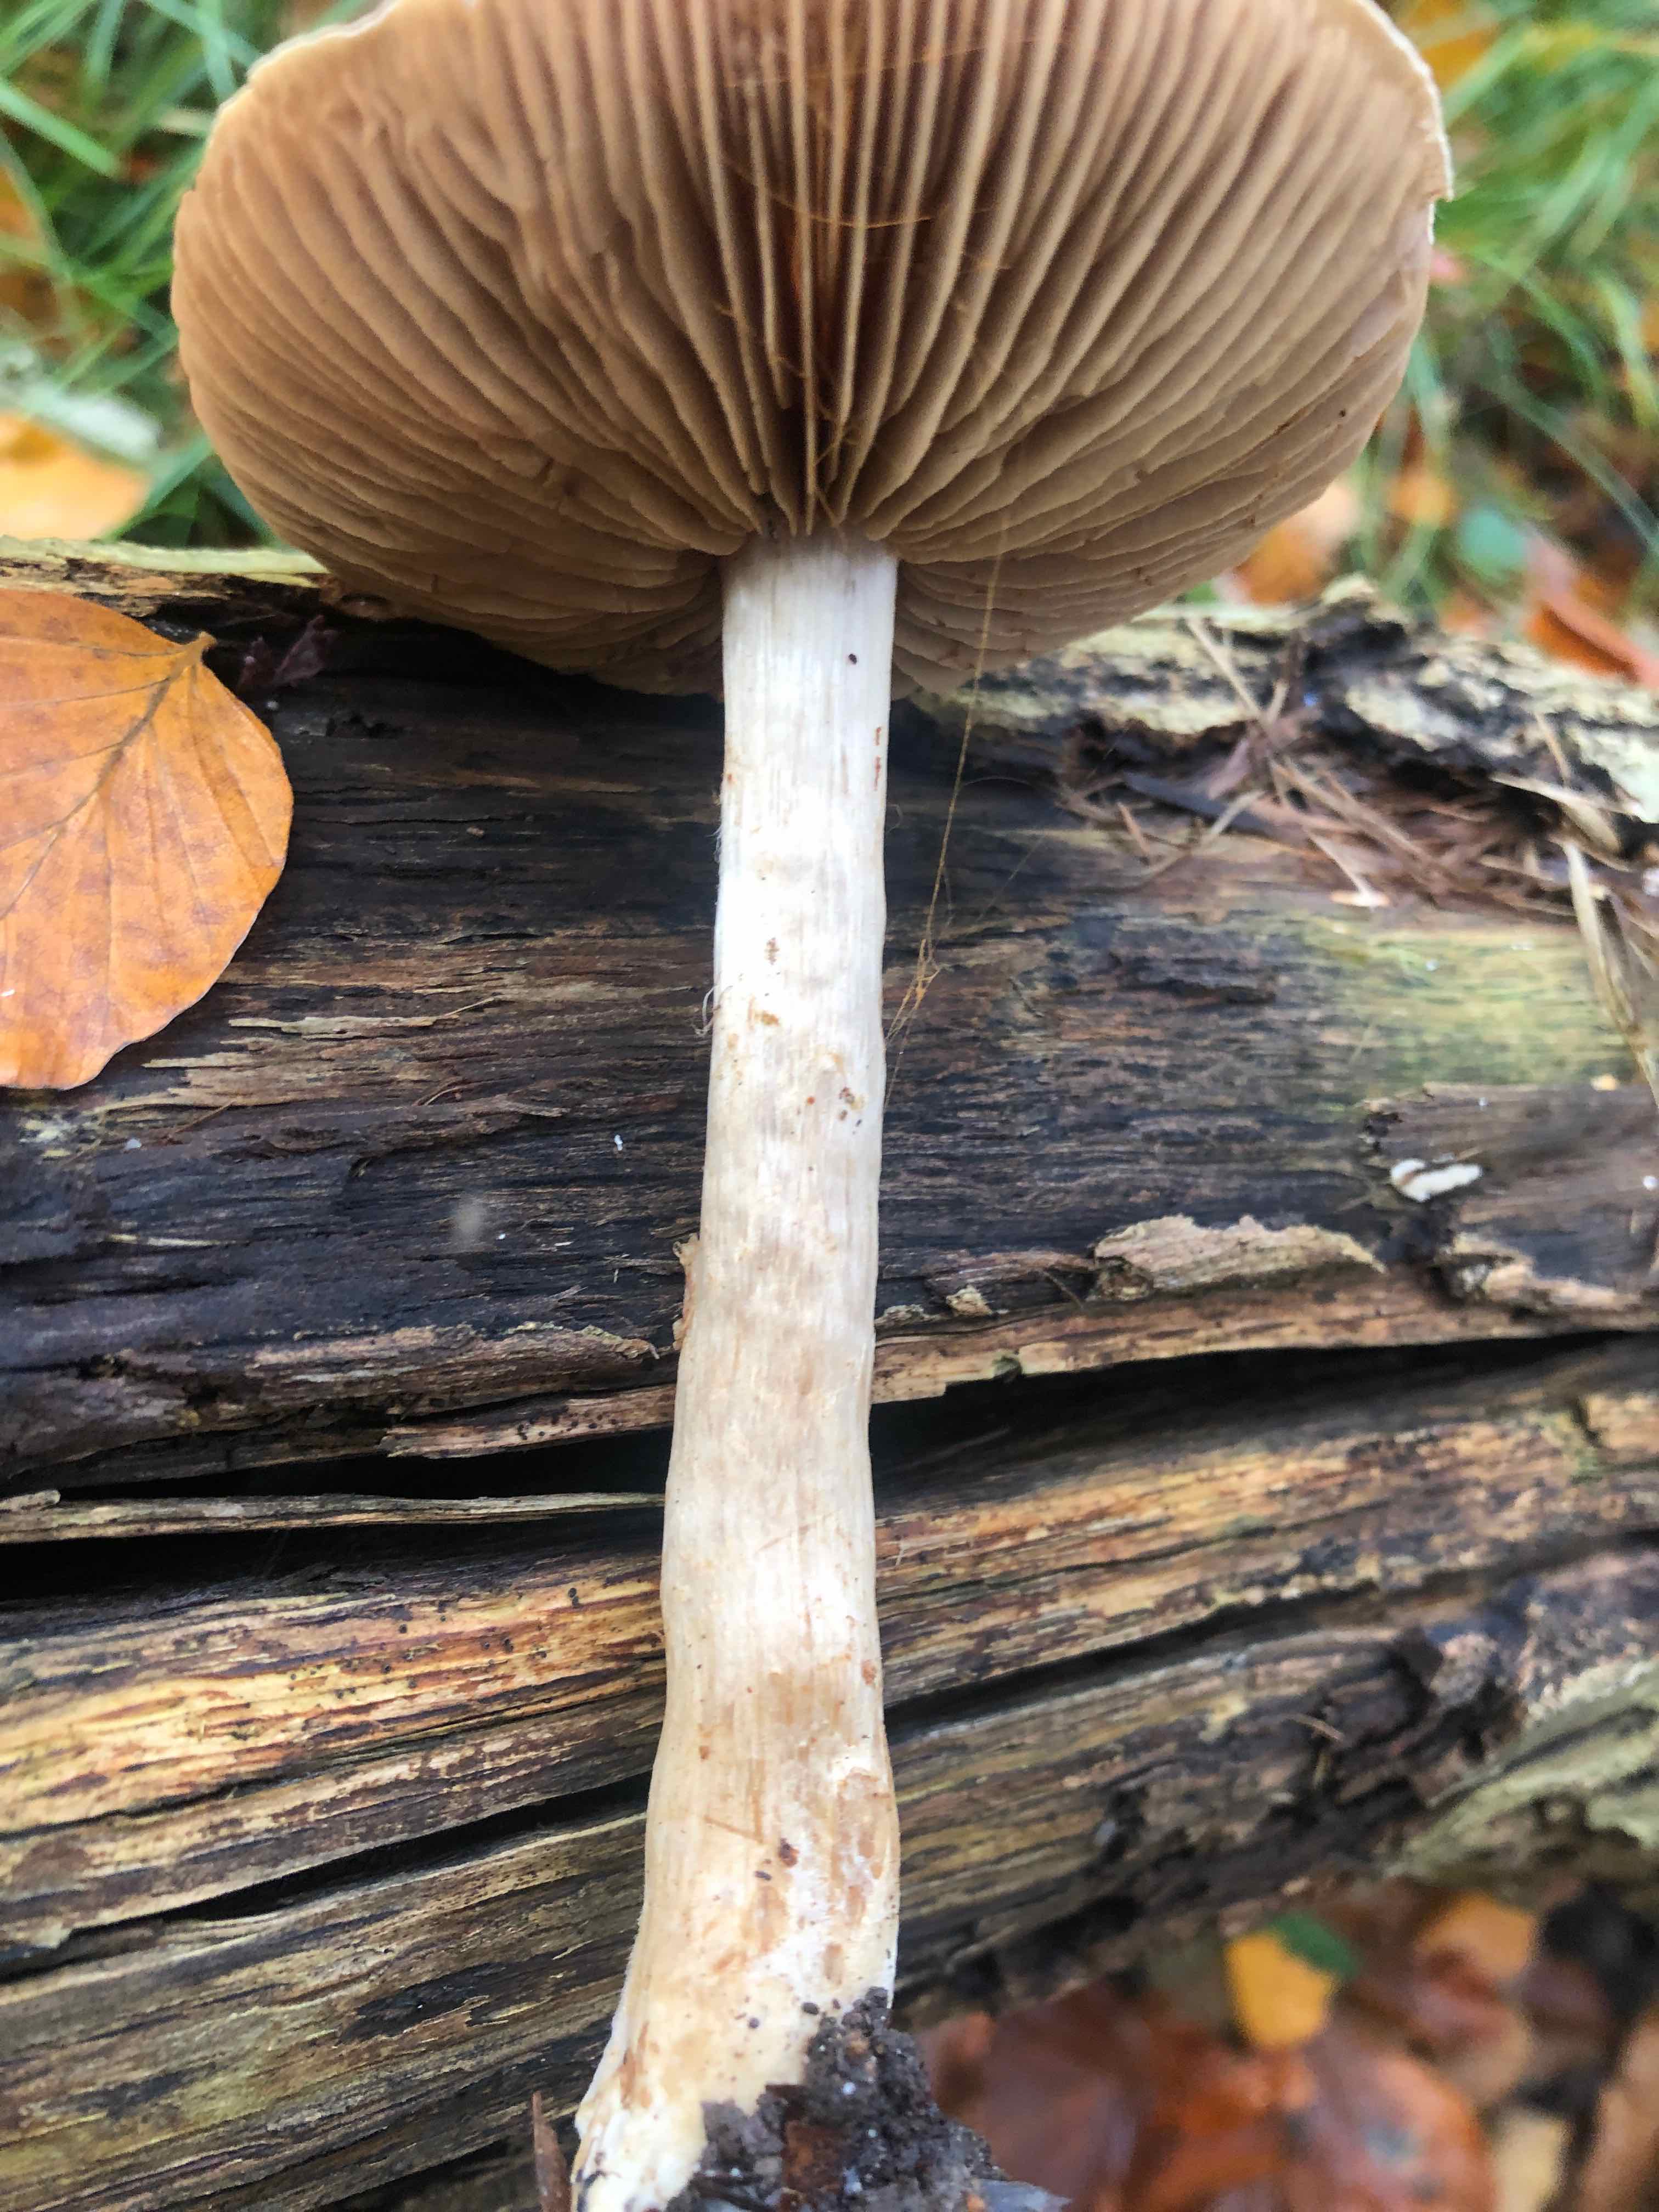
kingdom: Fungi
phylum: Basidiomycota
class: Agaricomycetes
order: Agaricales
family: Cortinariaceae
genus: Cortinarius
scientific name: Cortinarius
